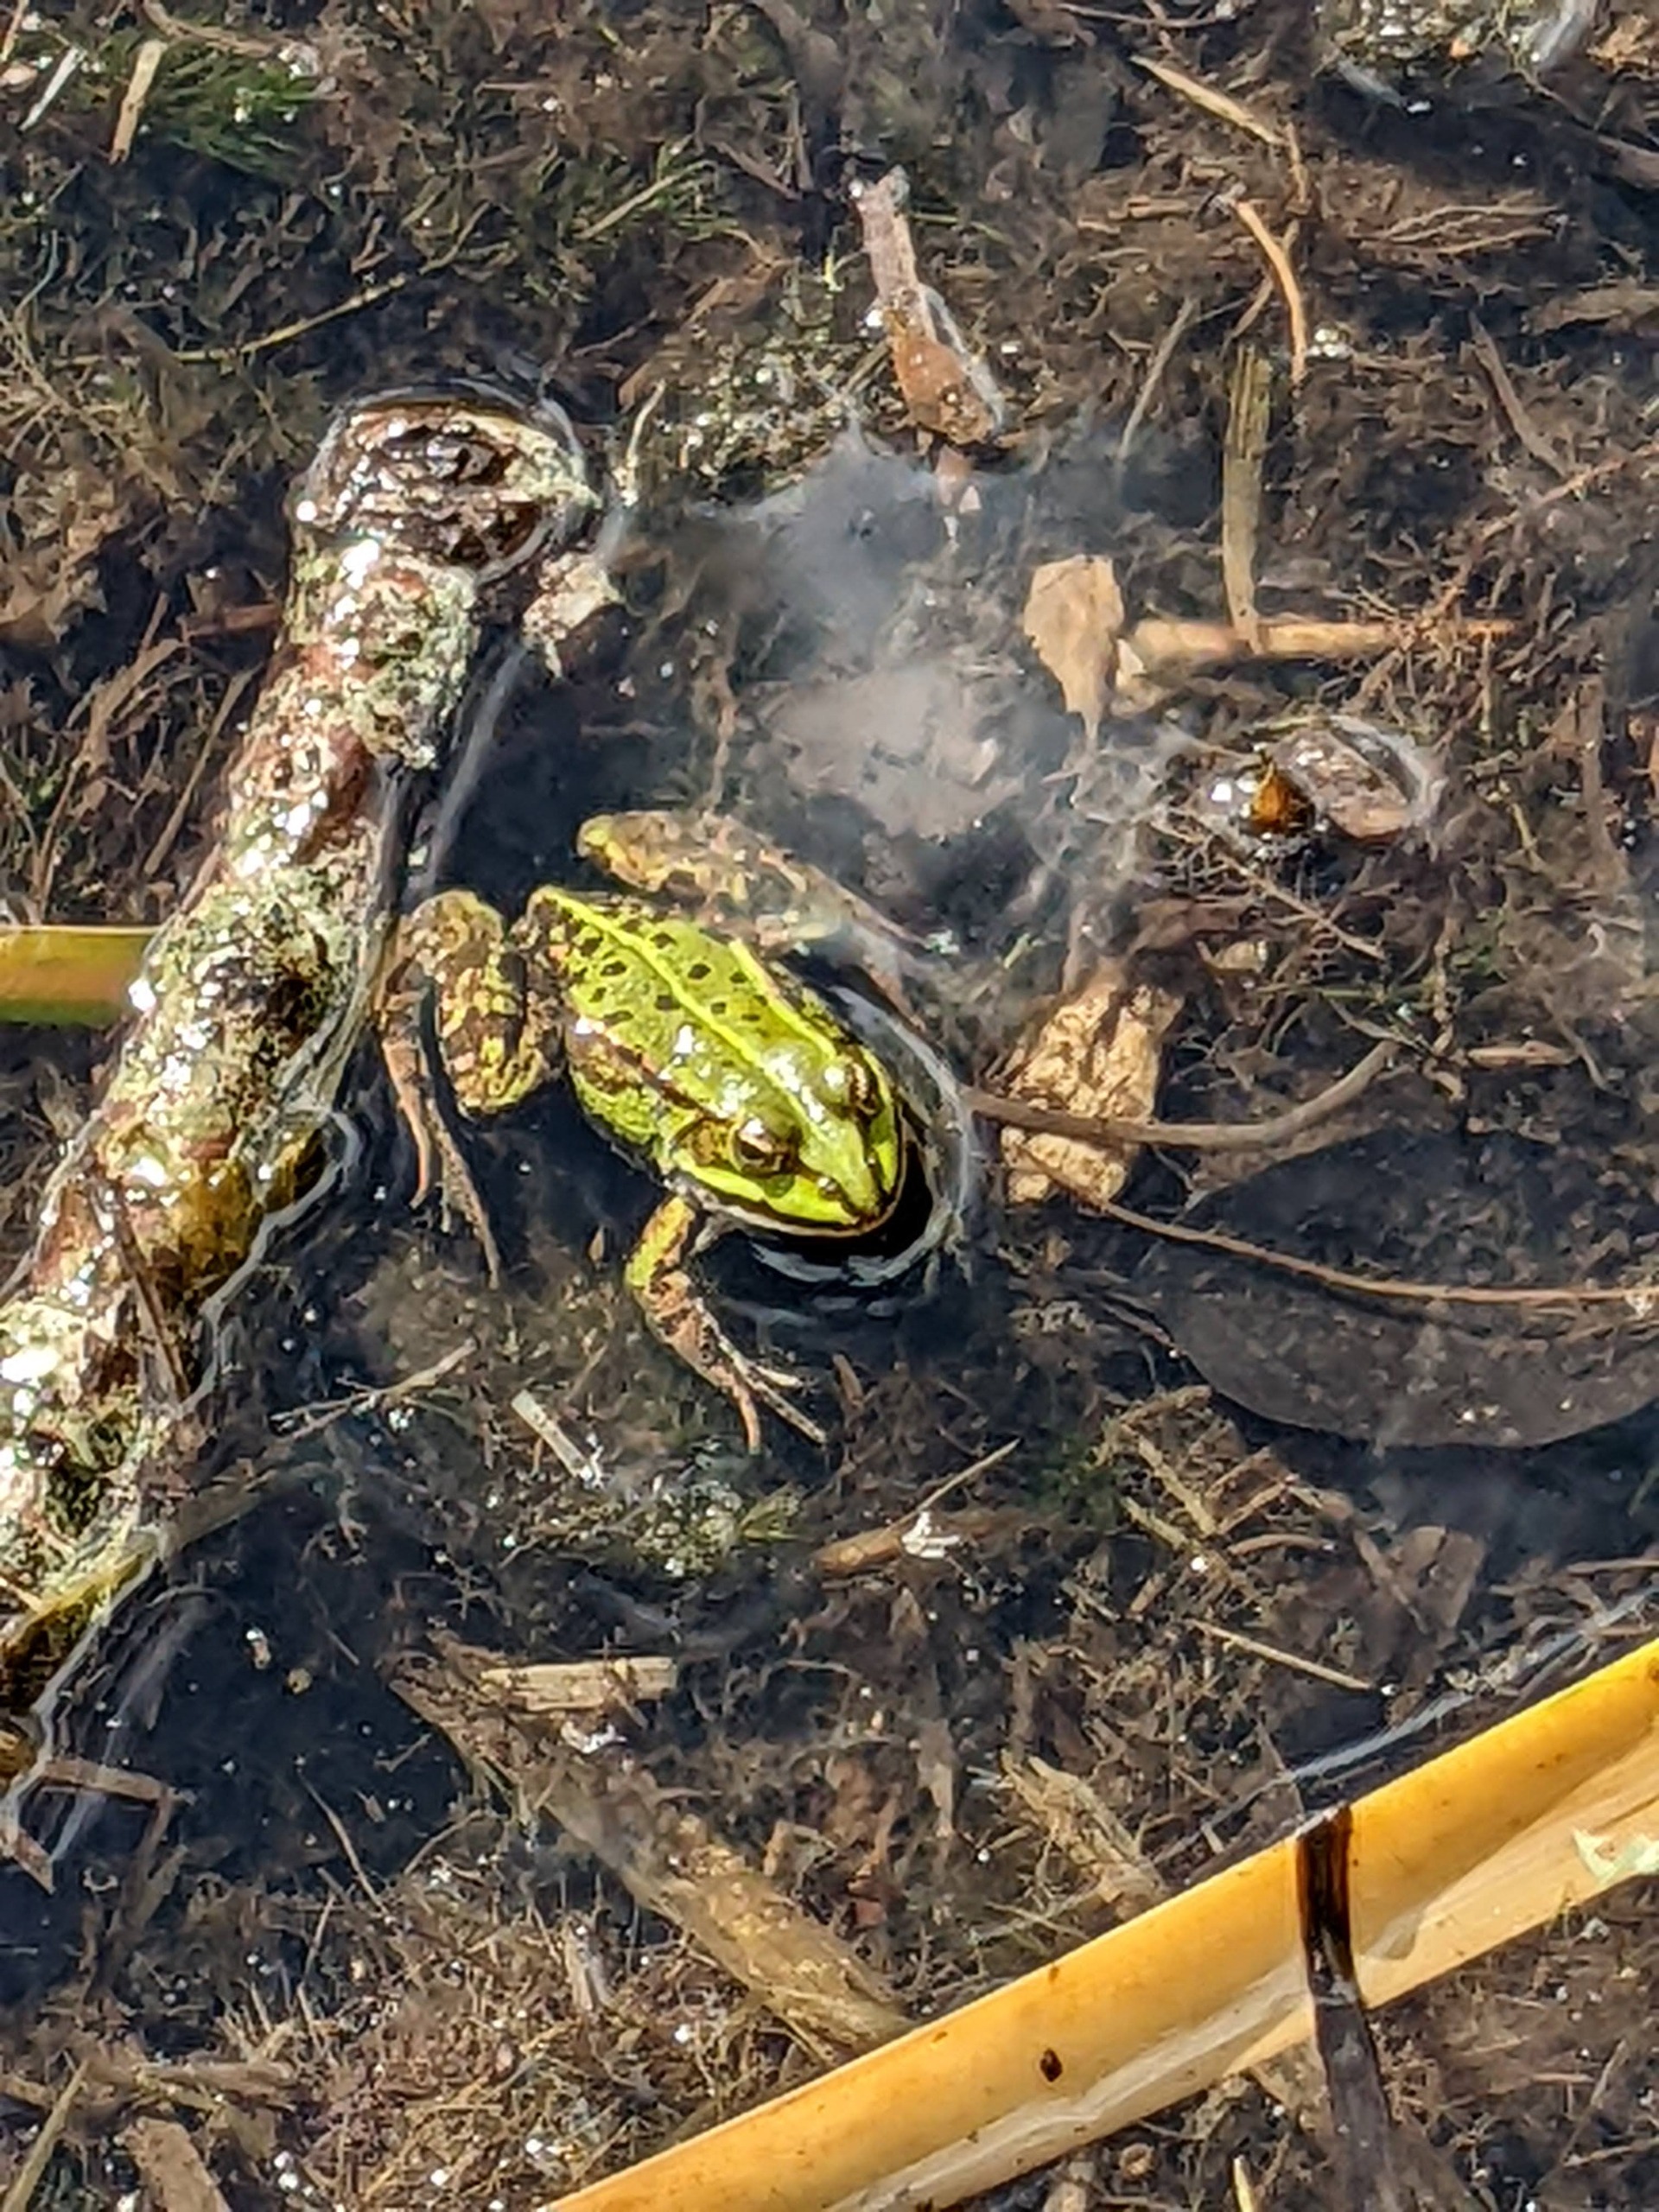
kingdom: Animalia
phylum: Chordata
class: Amphibia
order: Anura
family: Ranidae
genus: Pelophylax
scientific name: Pelophylax lessonae
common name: Grøn frø
